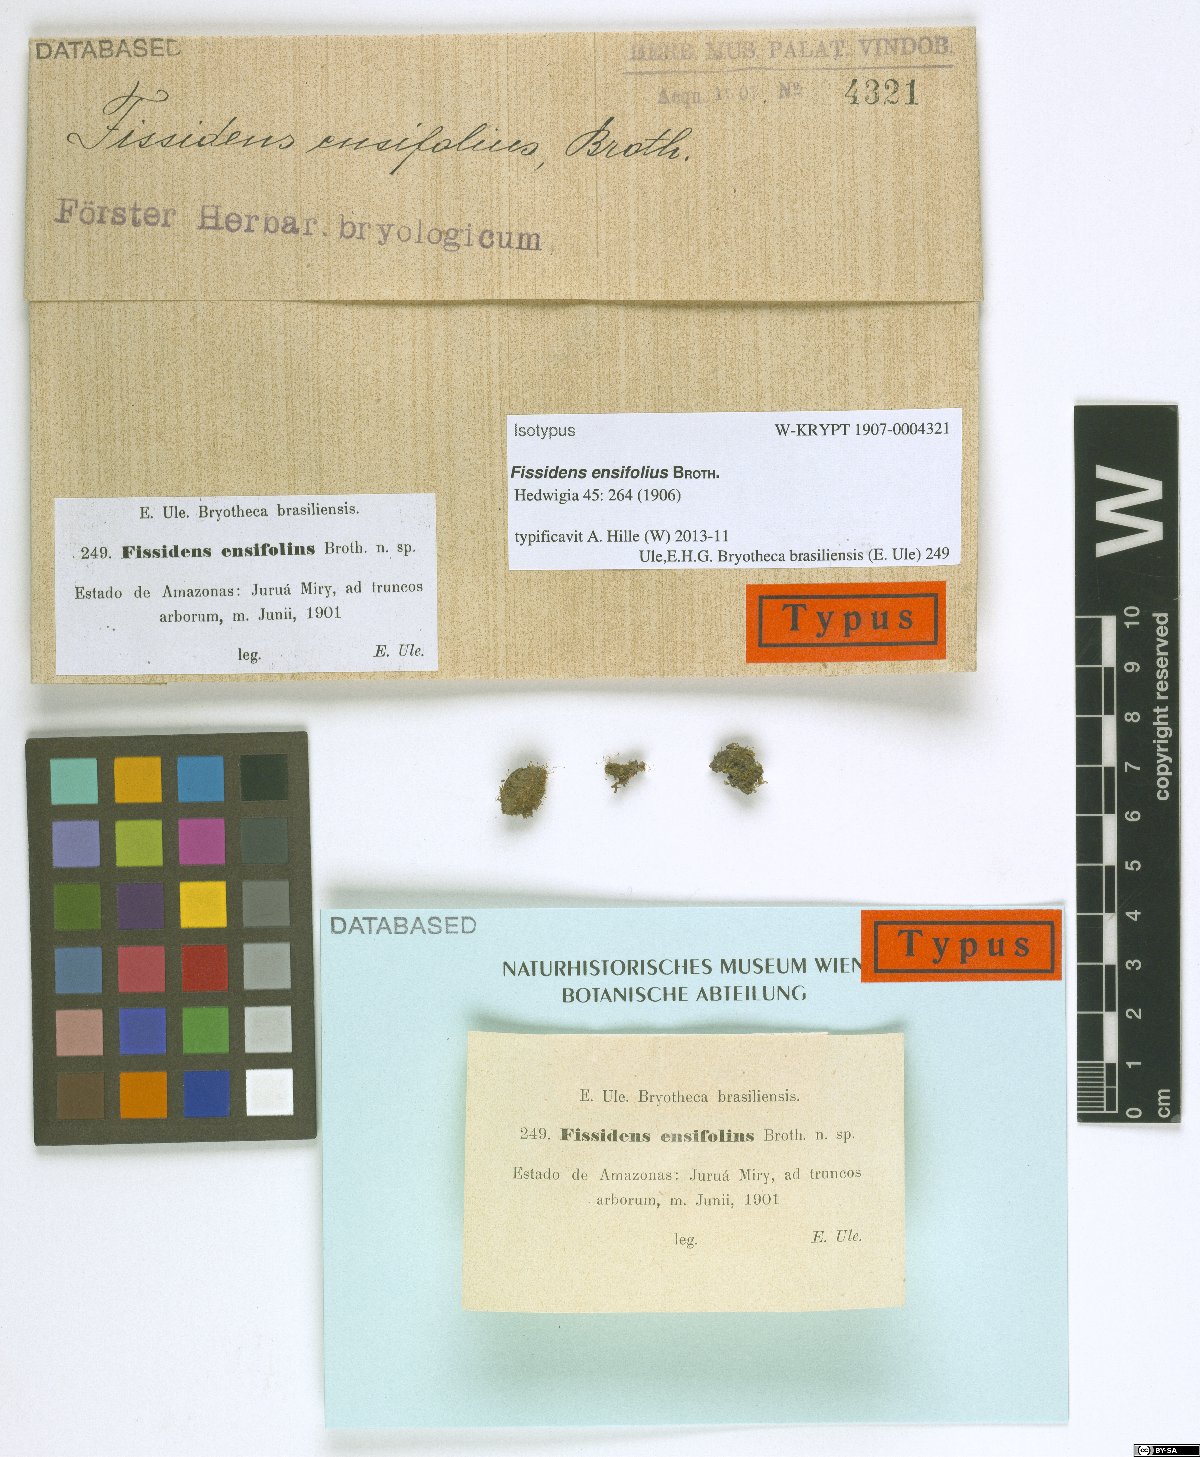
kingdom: Plantae
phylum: Bryophyta
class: Bryopsida
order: Dicranales
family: Fissidentaceae
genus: Fissidens
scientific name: Fissidens biformis
